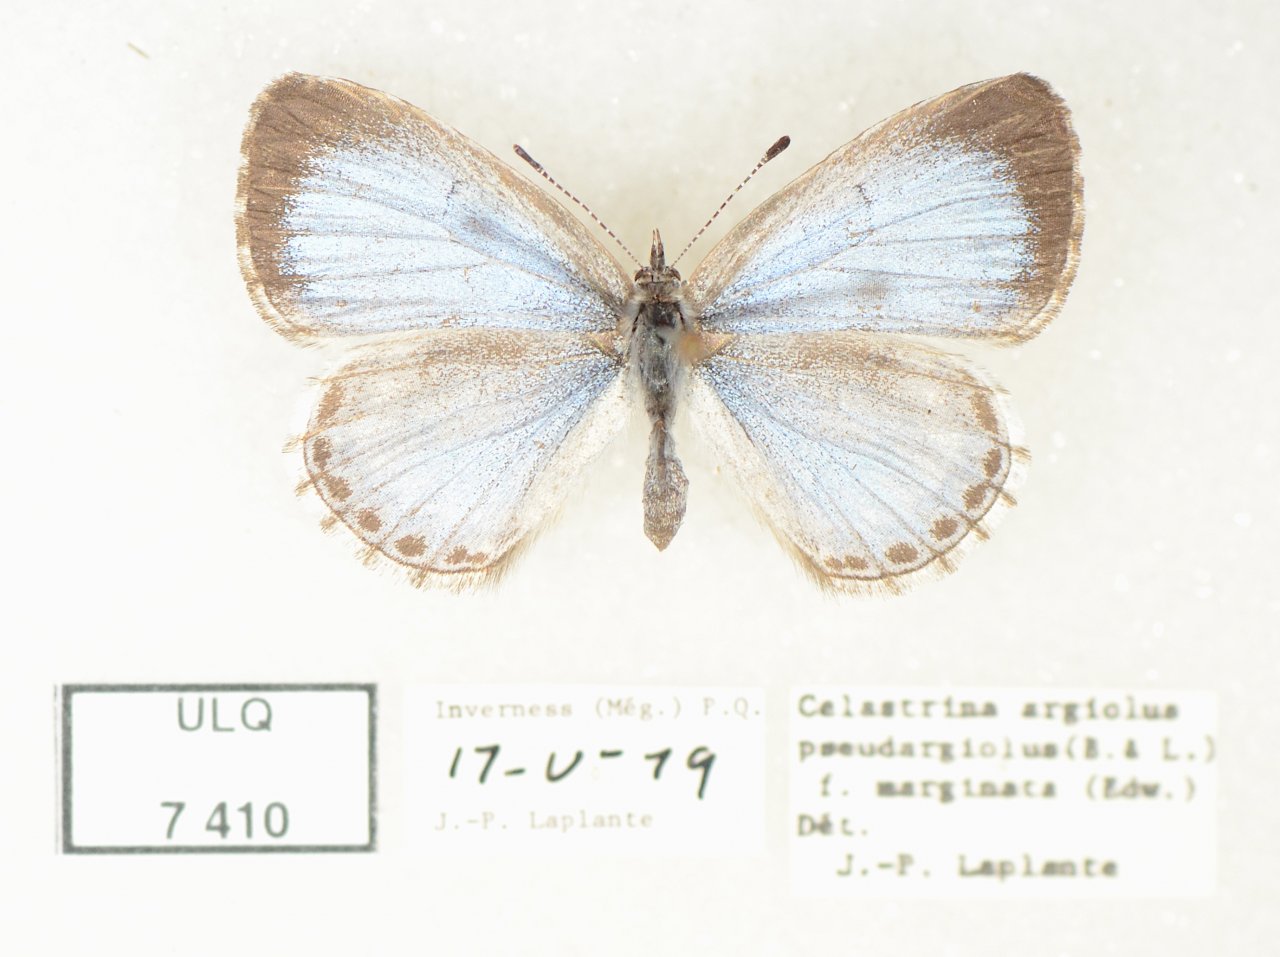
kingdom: Animalia
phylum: Arthropoda
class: Insecta
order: Lepidoptera
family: Lycaenidae
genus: Celastrina
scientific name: Celastrina lucia
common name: Northern Spring Azure
